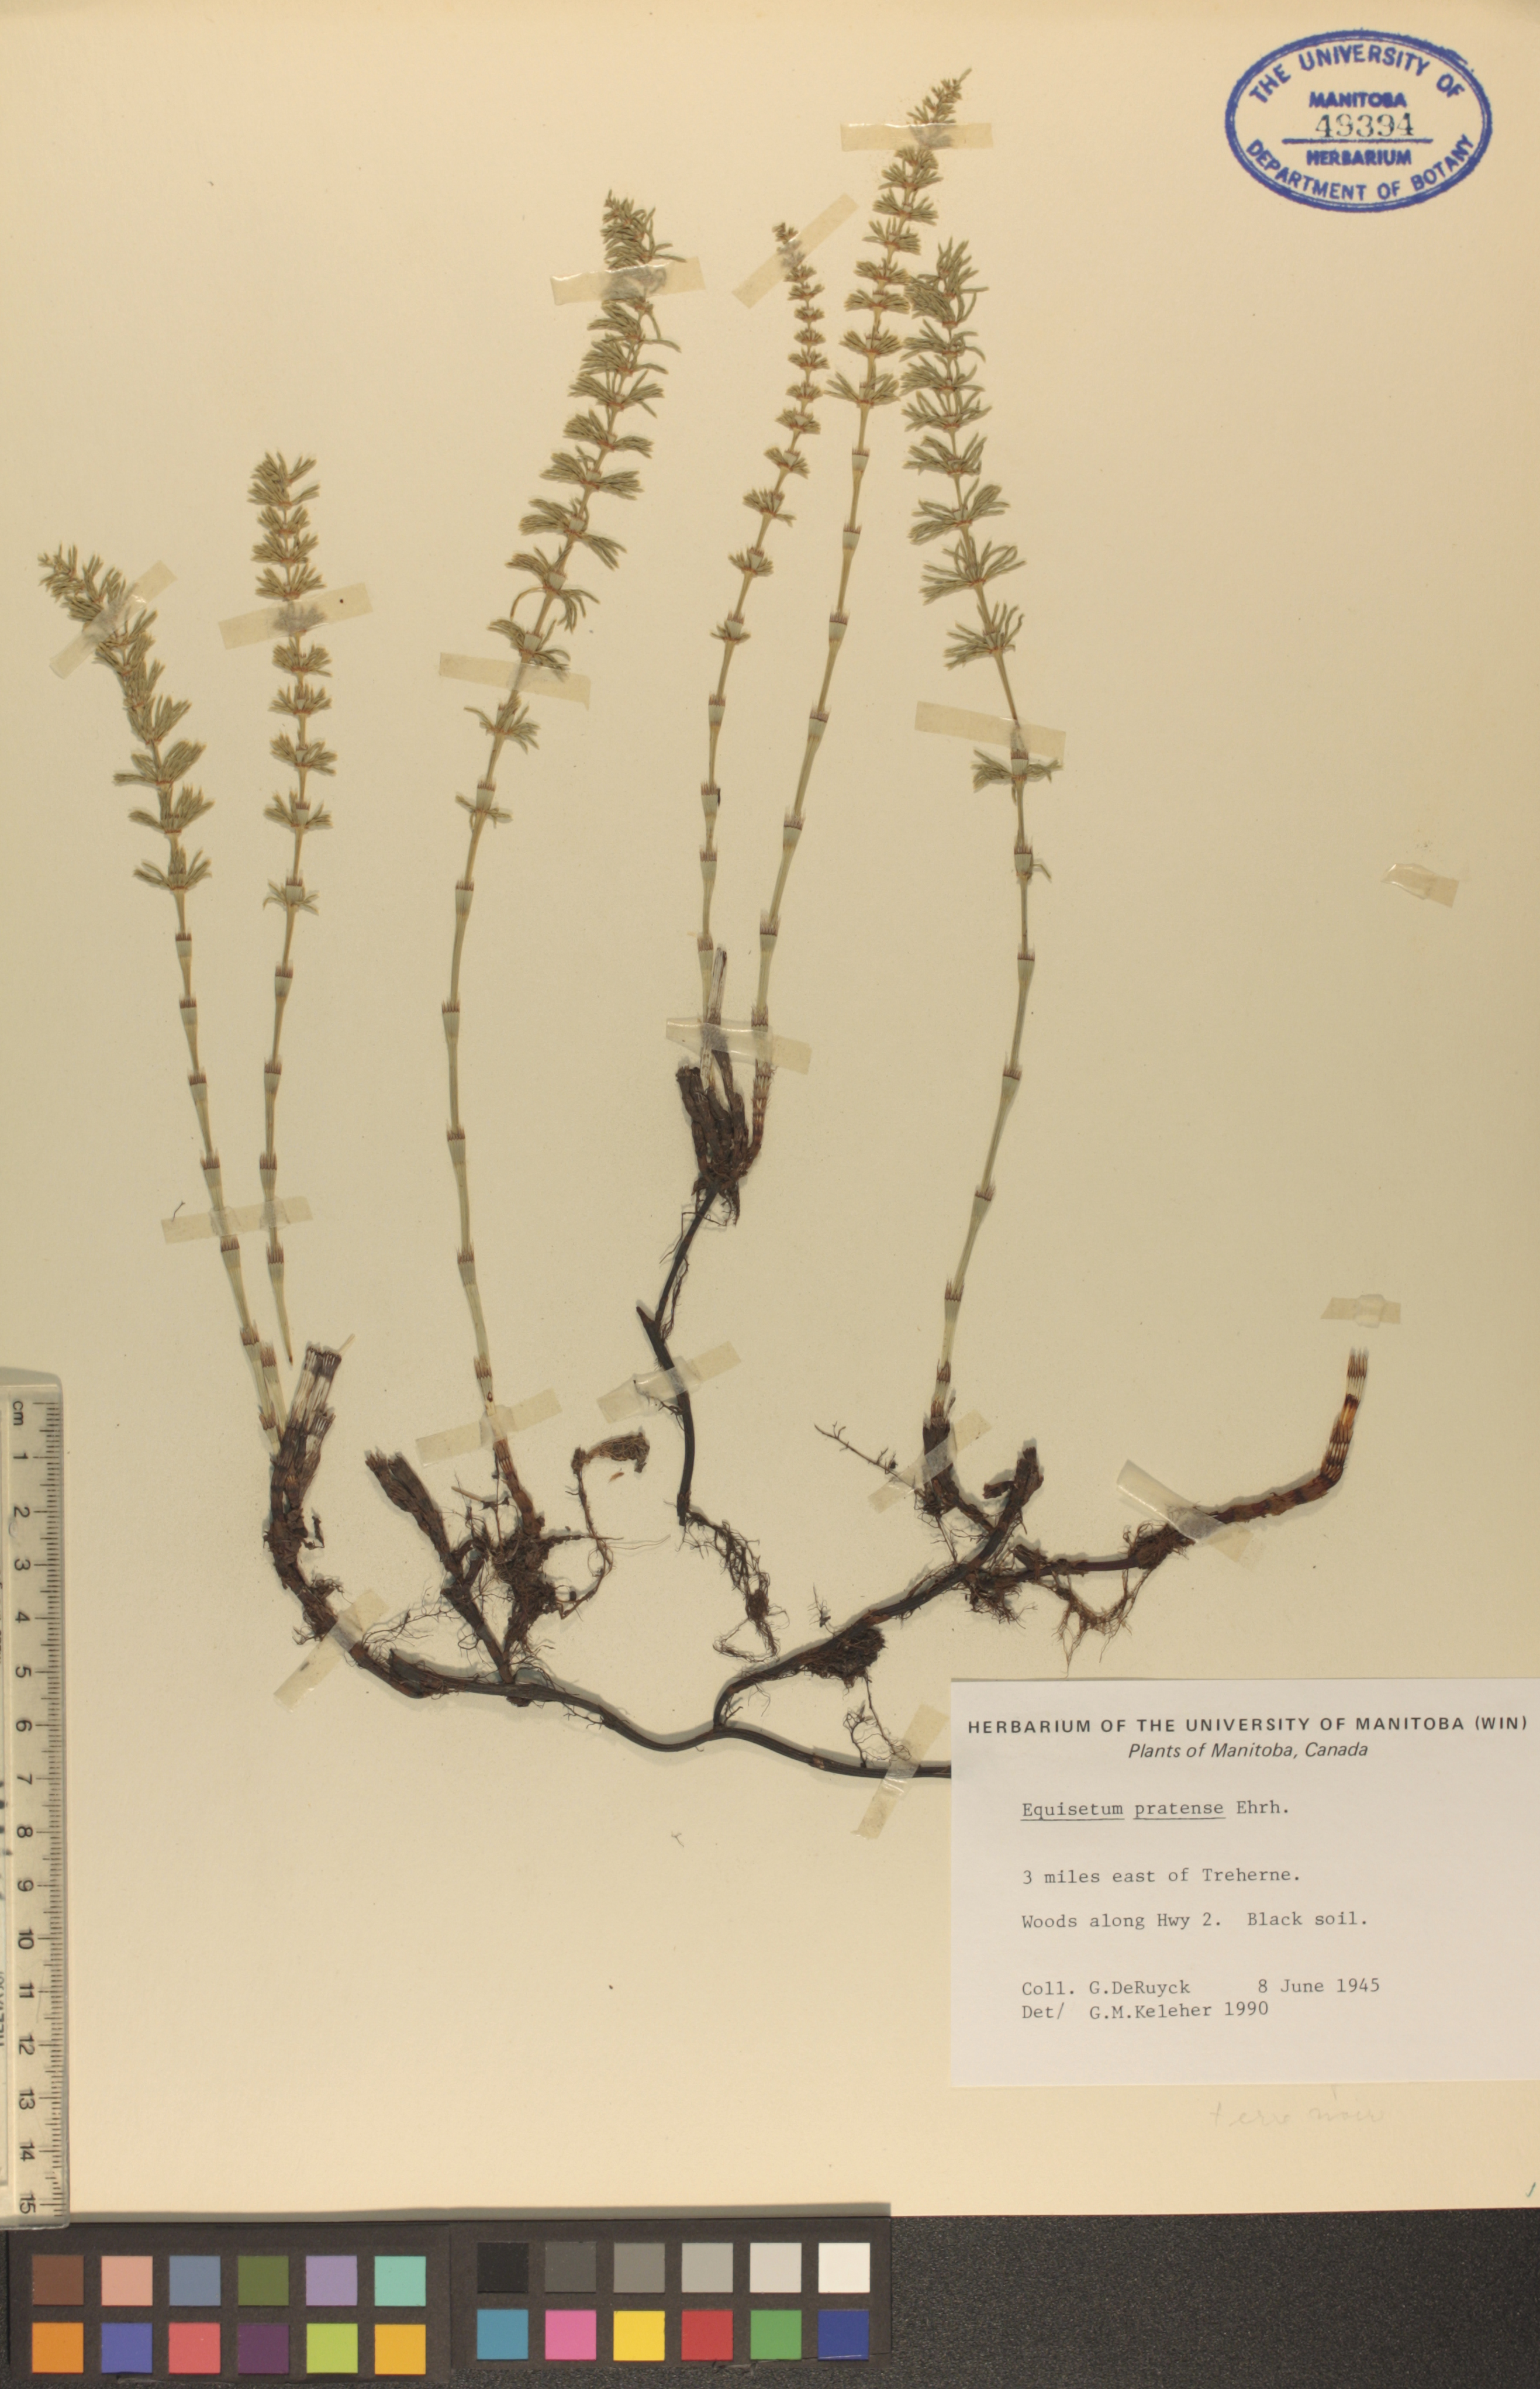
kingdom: Plantae
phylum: Tracheophyta
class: Polypodiopsida
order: Equisetales
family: Equisetaceae
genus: Equisetum
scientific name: Equisetum pratense
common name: Meadow horsetail
